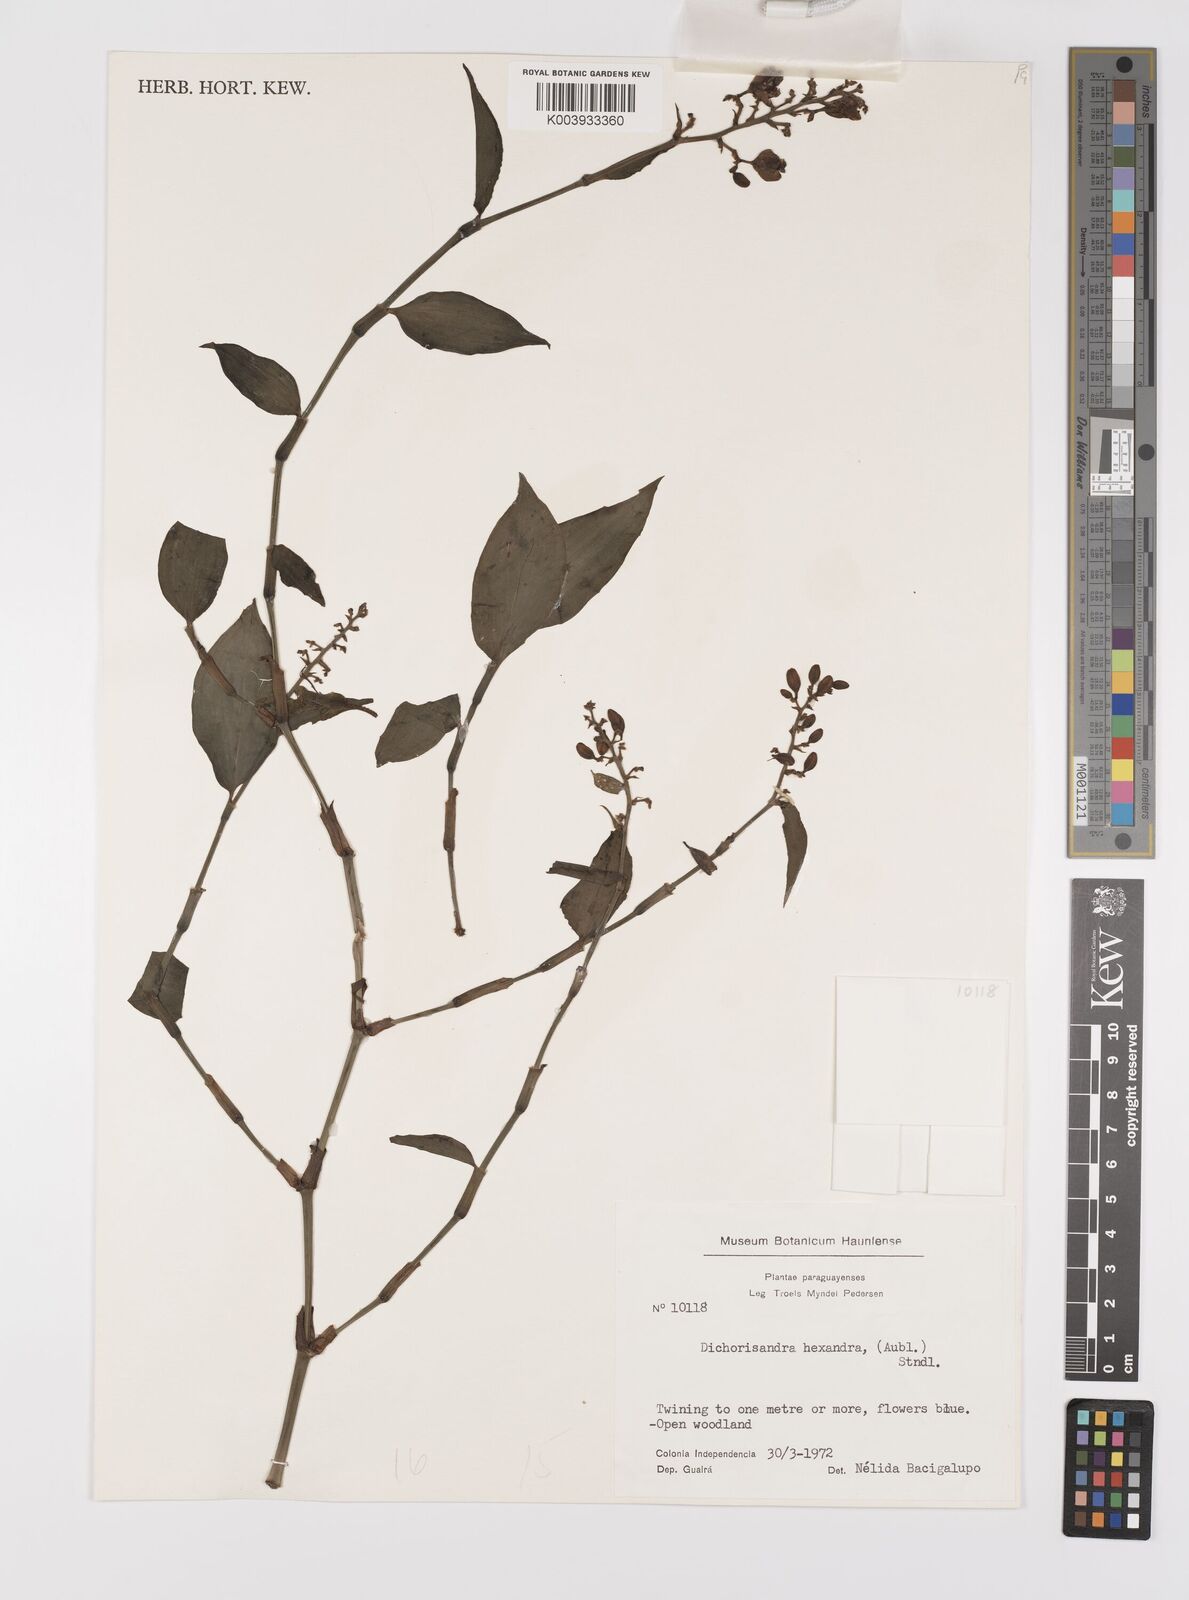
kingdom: Plantae
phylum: Tracheophyta
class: Liliopsida
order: Commelinales
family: Commelinaceae
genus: Dichorisandra
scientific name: Dichorisandra hexandra
